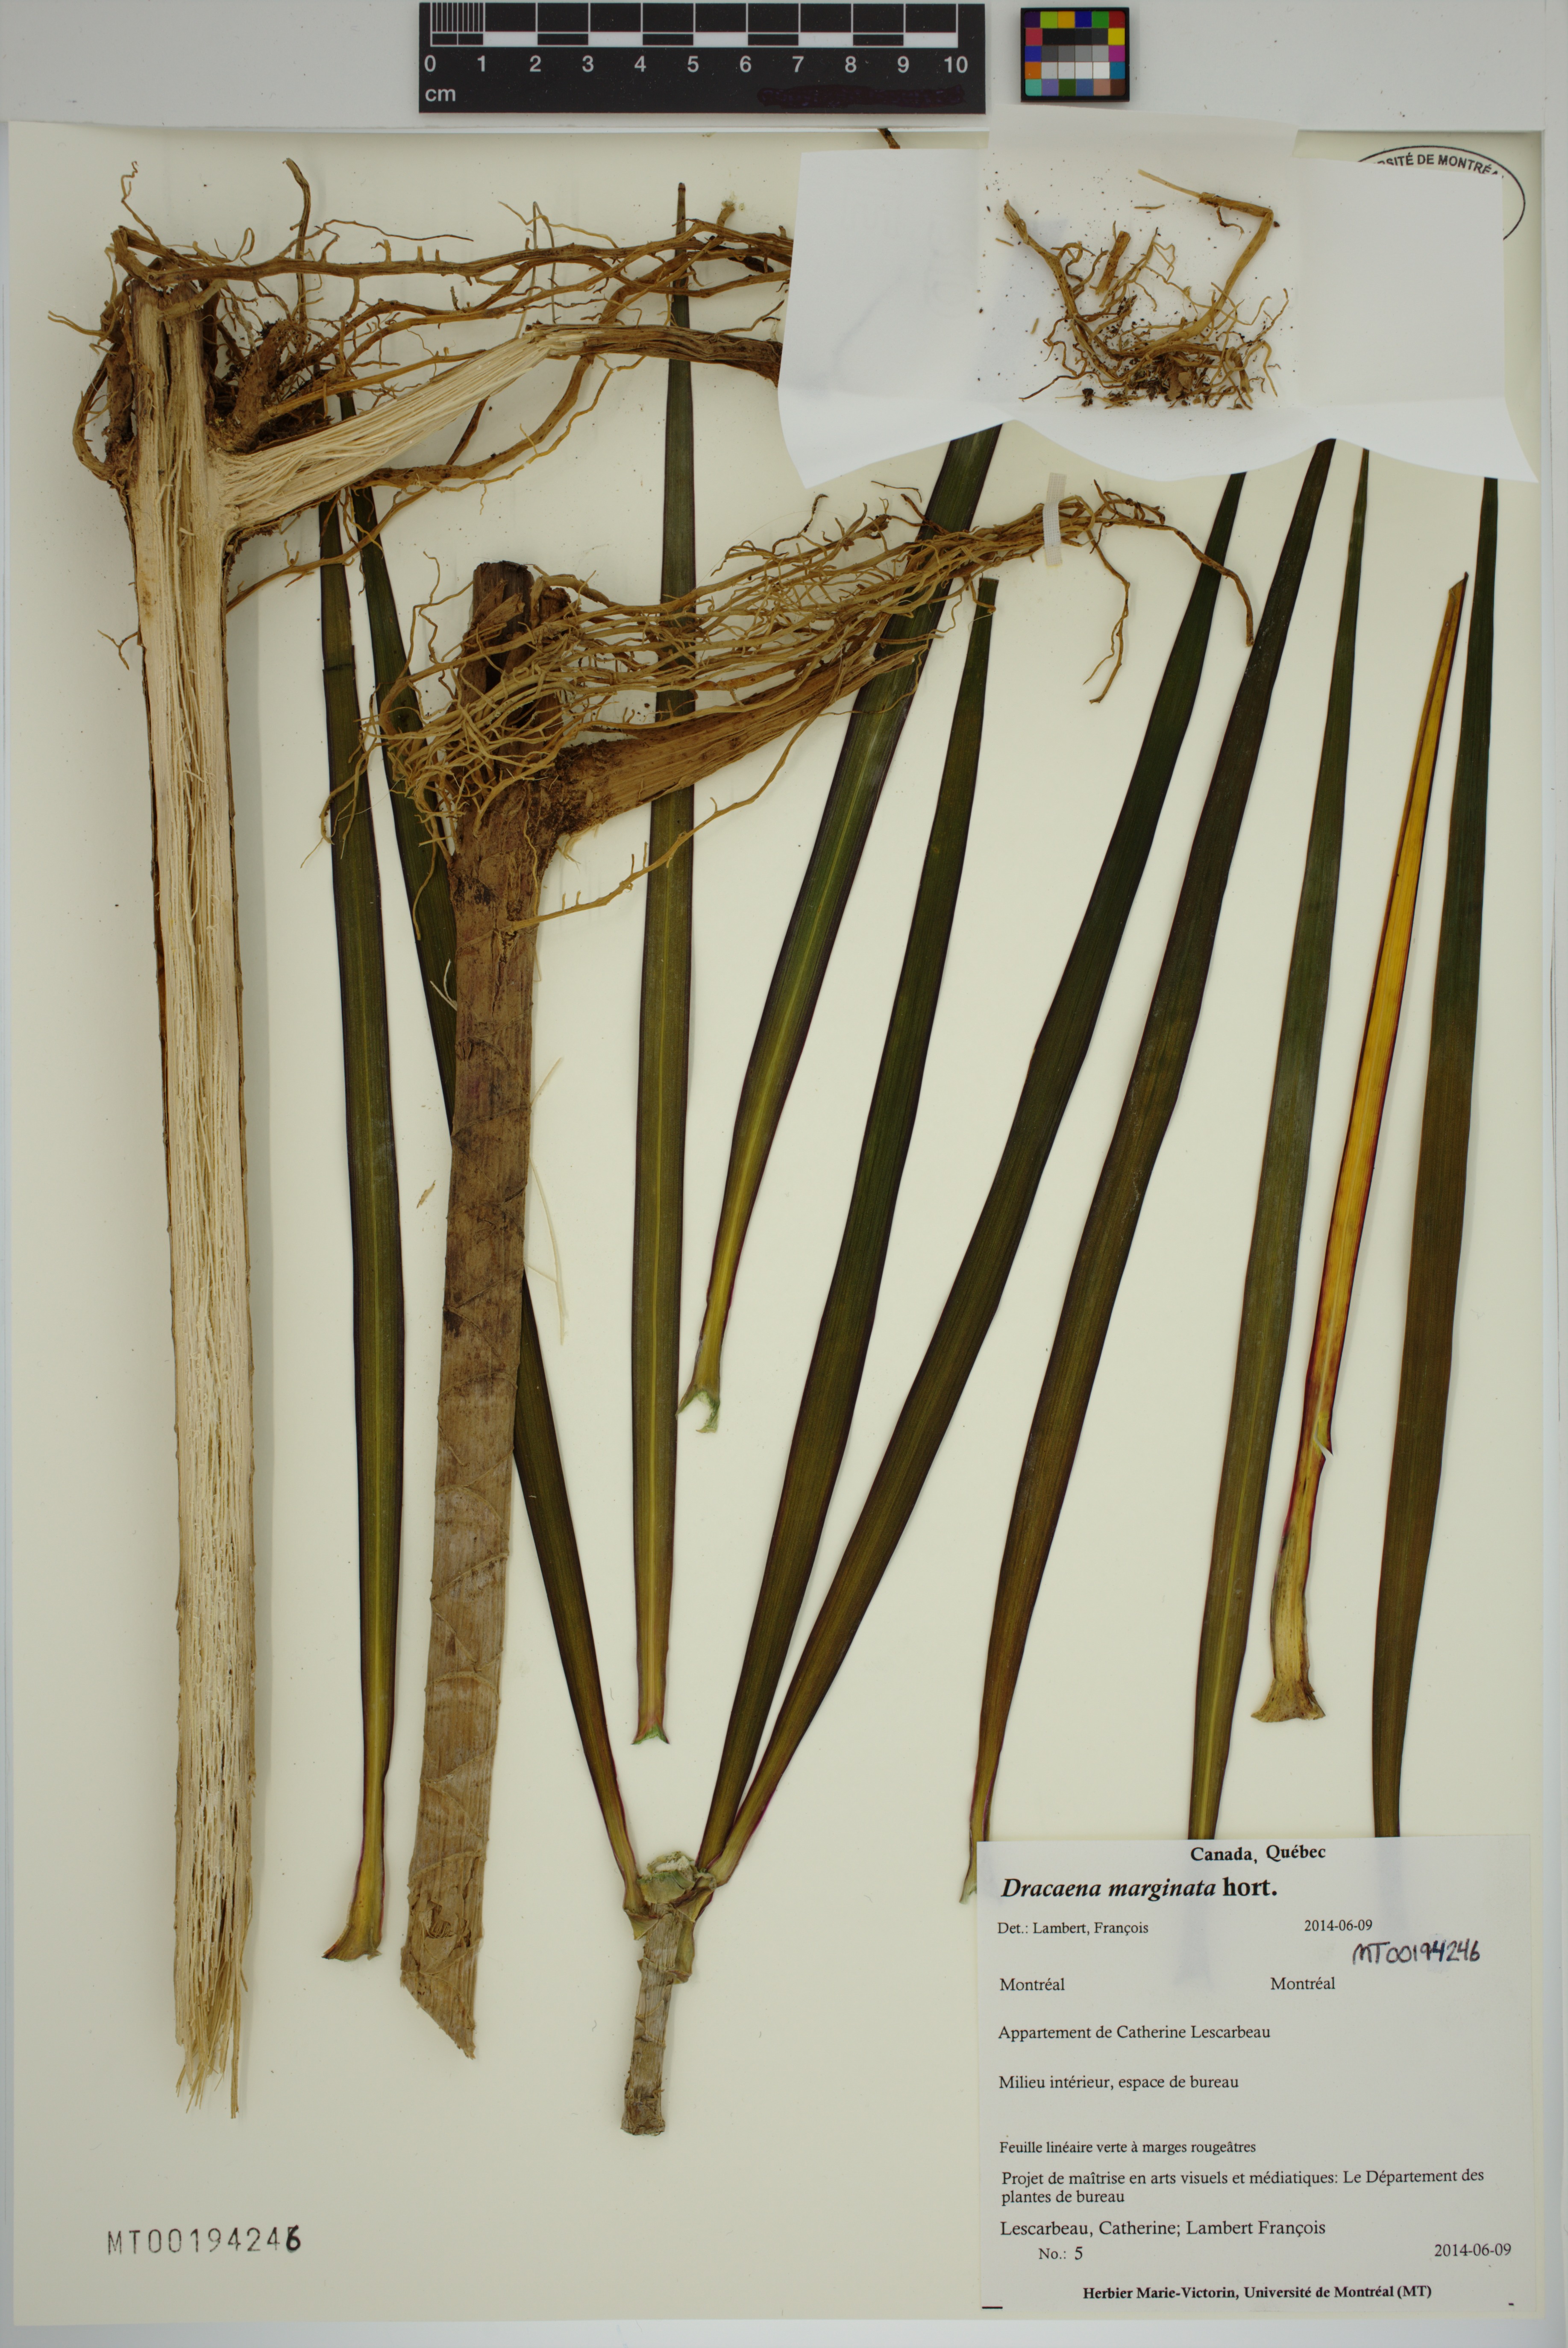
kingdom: Plantae
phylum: Tracheophyta
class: Liliopsida
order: Asparagales
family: Asparagaceae
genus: Dracaena
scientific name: Dracaena reflexa
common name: Song-of-india
